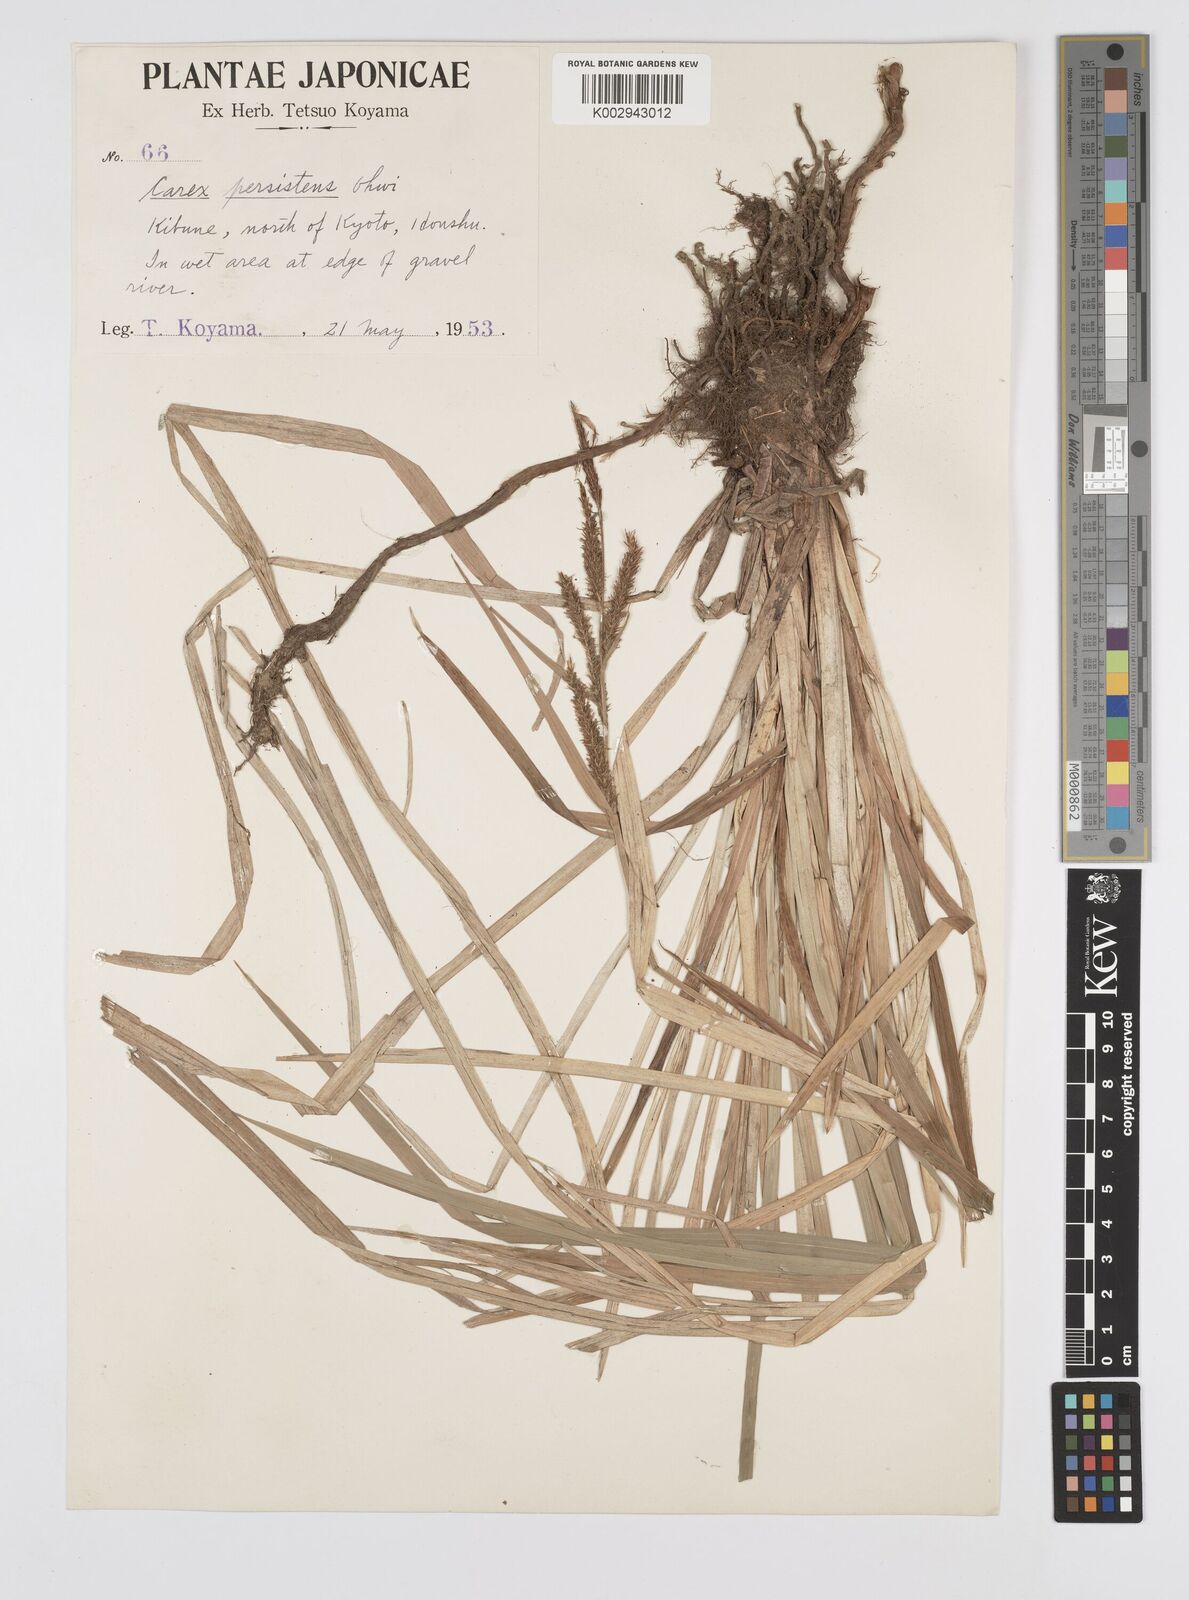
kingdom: Plantae
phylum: Tracheophyta
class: Liliopsida
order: Poales
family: Cyperaceae
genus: Carex
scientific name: Carex dispalata
